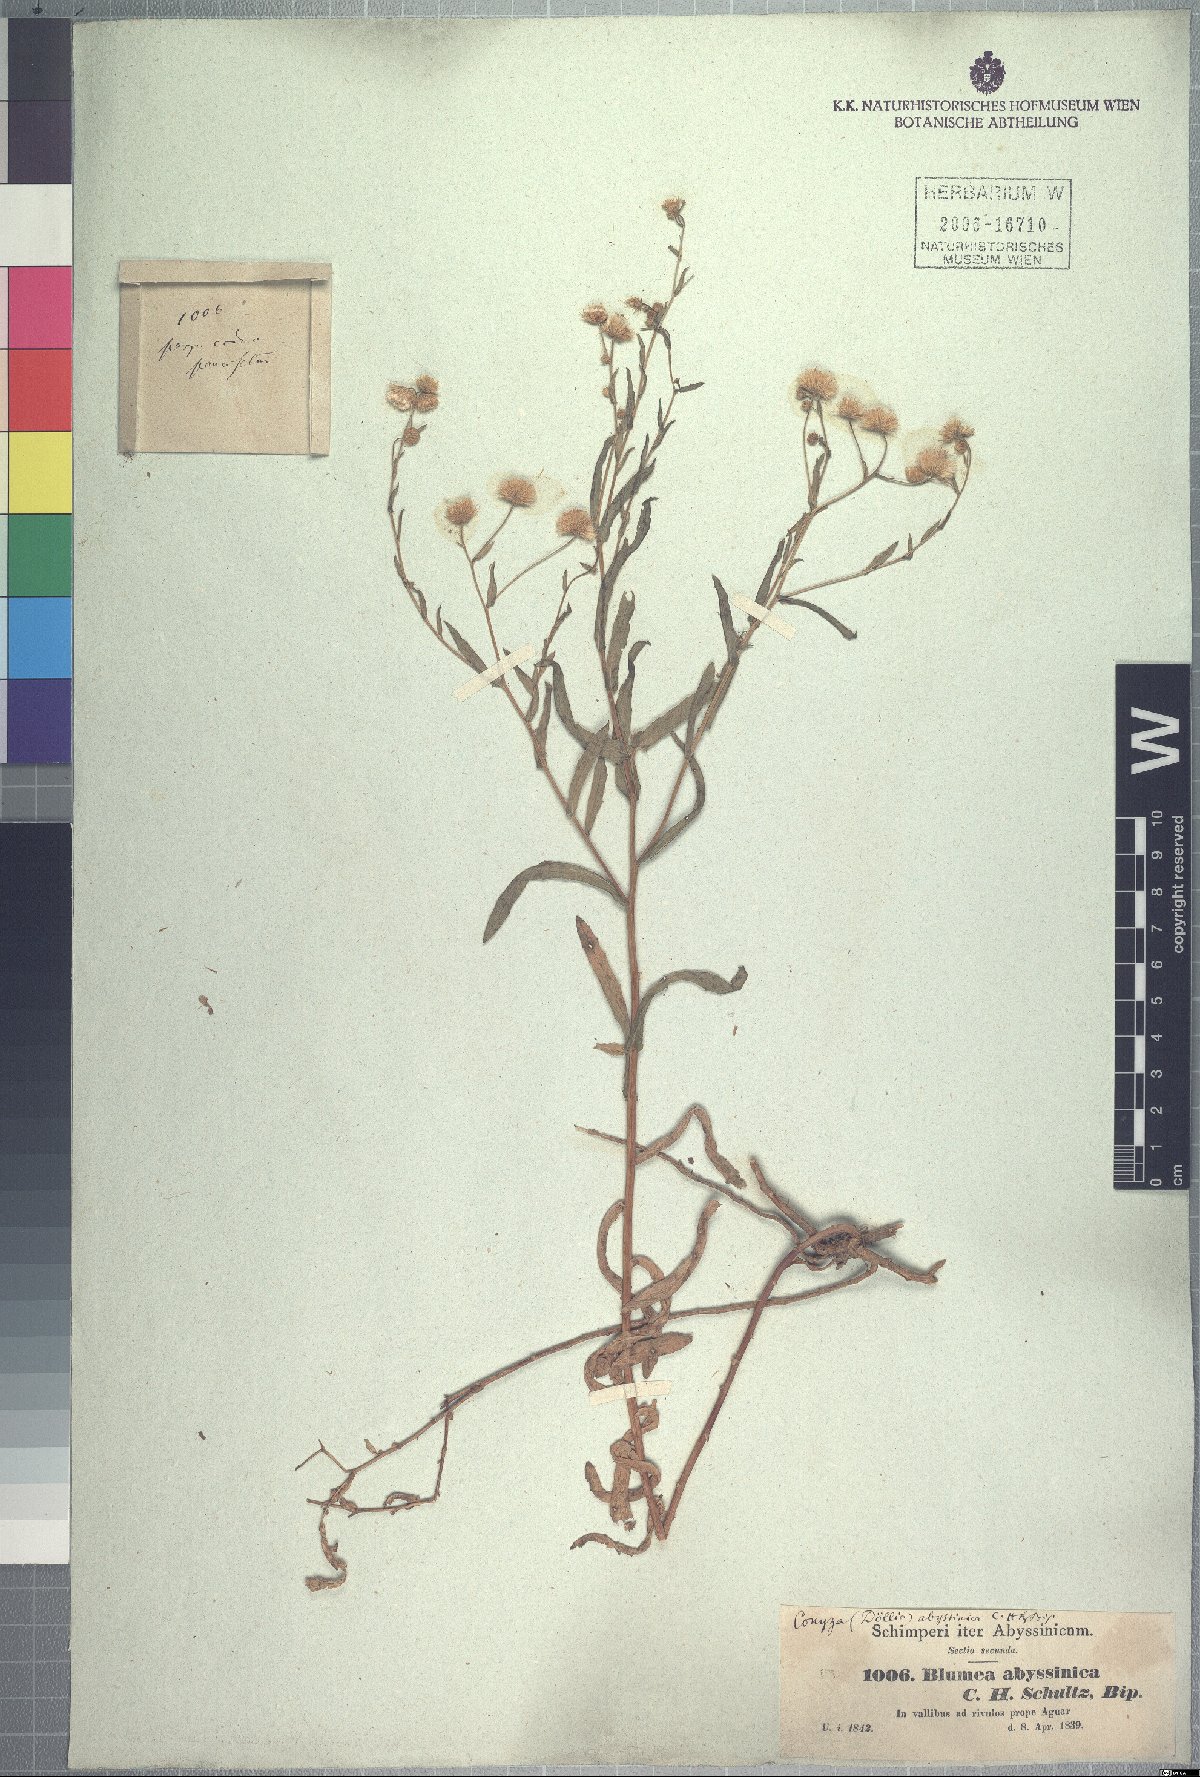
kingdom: Plantae
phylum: Tracheophyta
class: Magnoliopsida
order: Asterales
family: Asteraceae
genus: Doellia
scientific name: Doellia bovei
